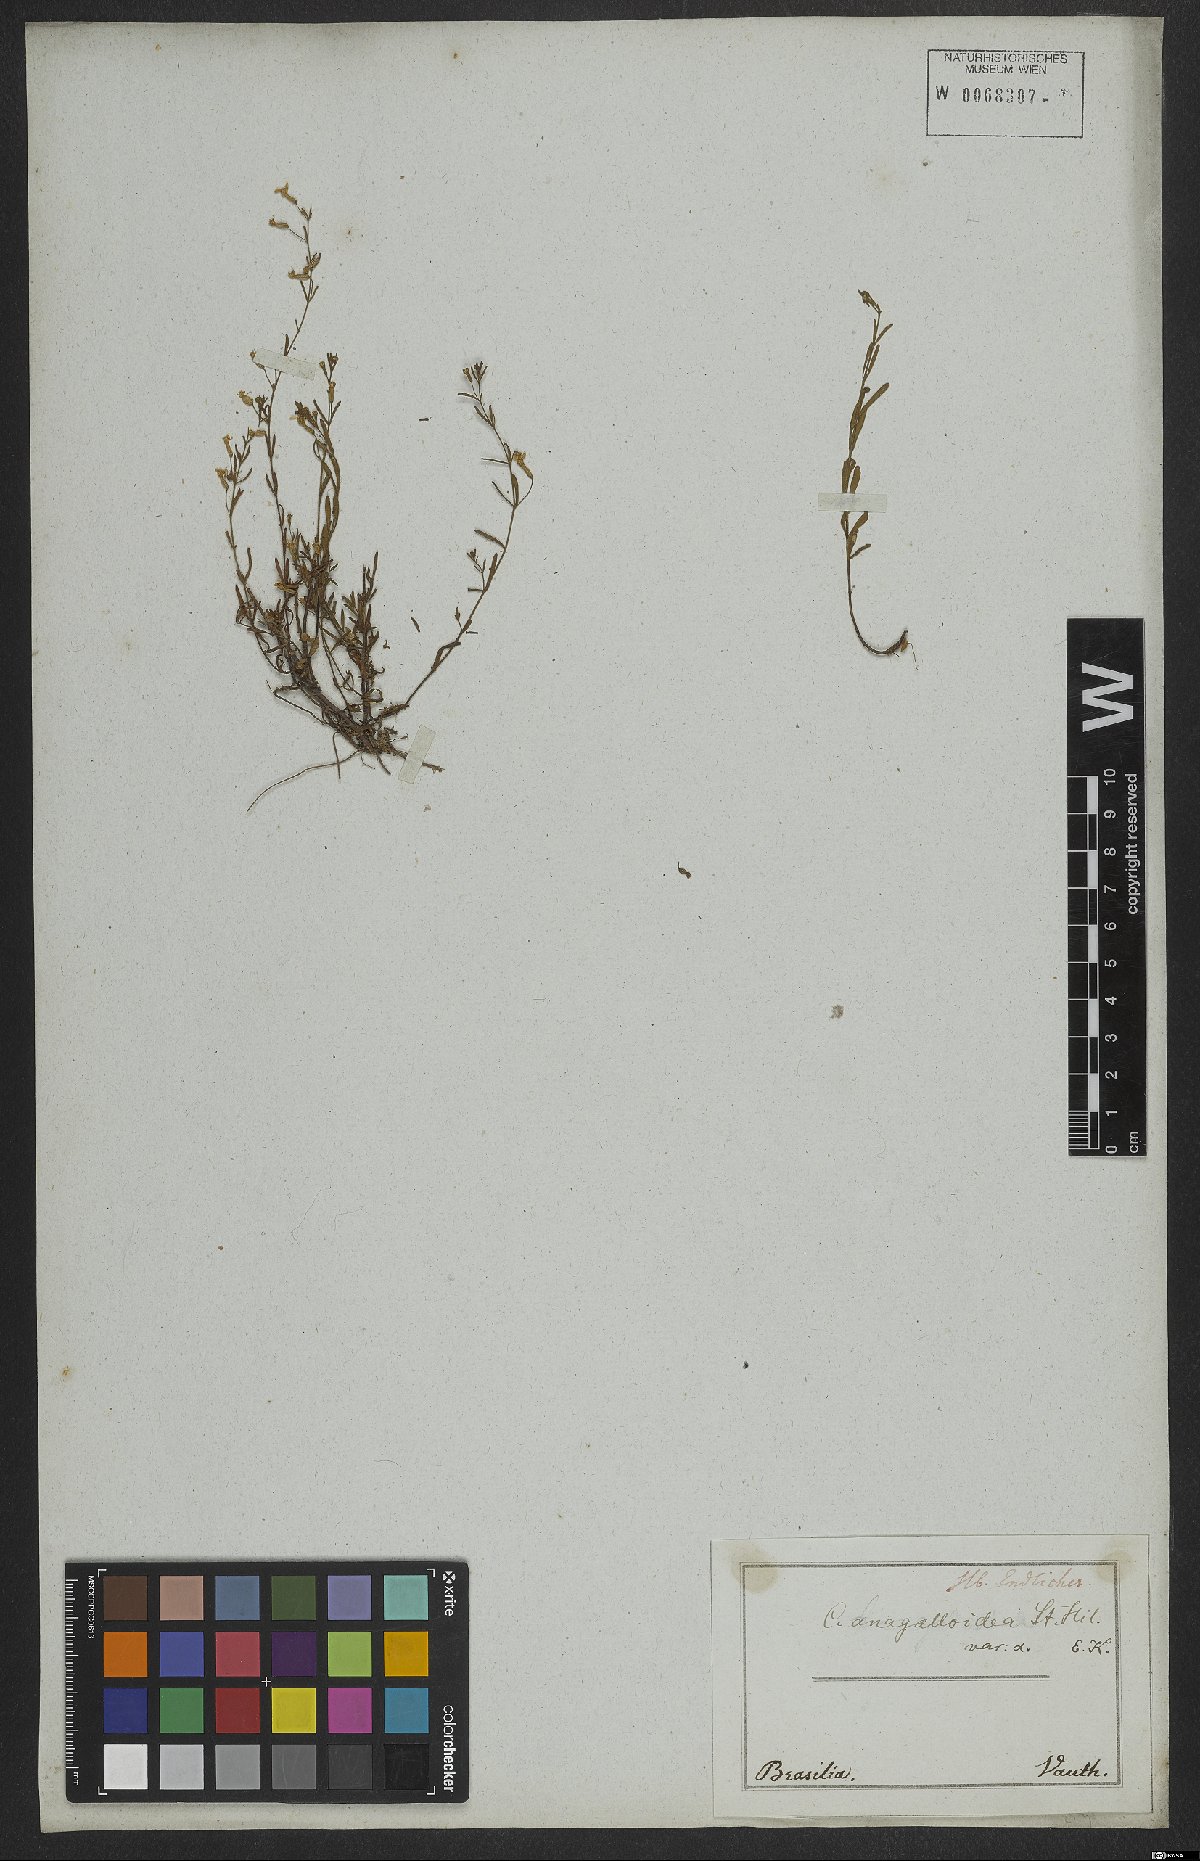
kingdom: Plantae
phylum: Tracheophyta
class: Magnoliopsida
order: Myrtales
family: Lythraceae
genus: Cuphea
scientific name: Cuphea anagalloidea
